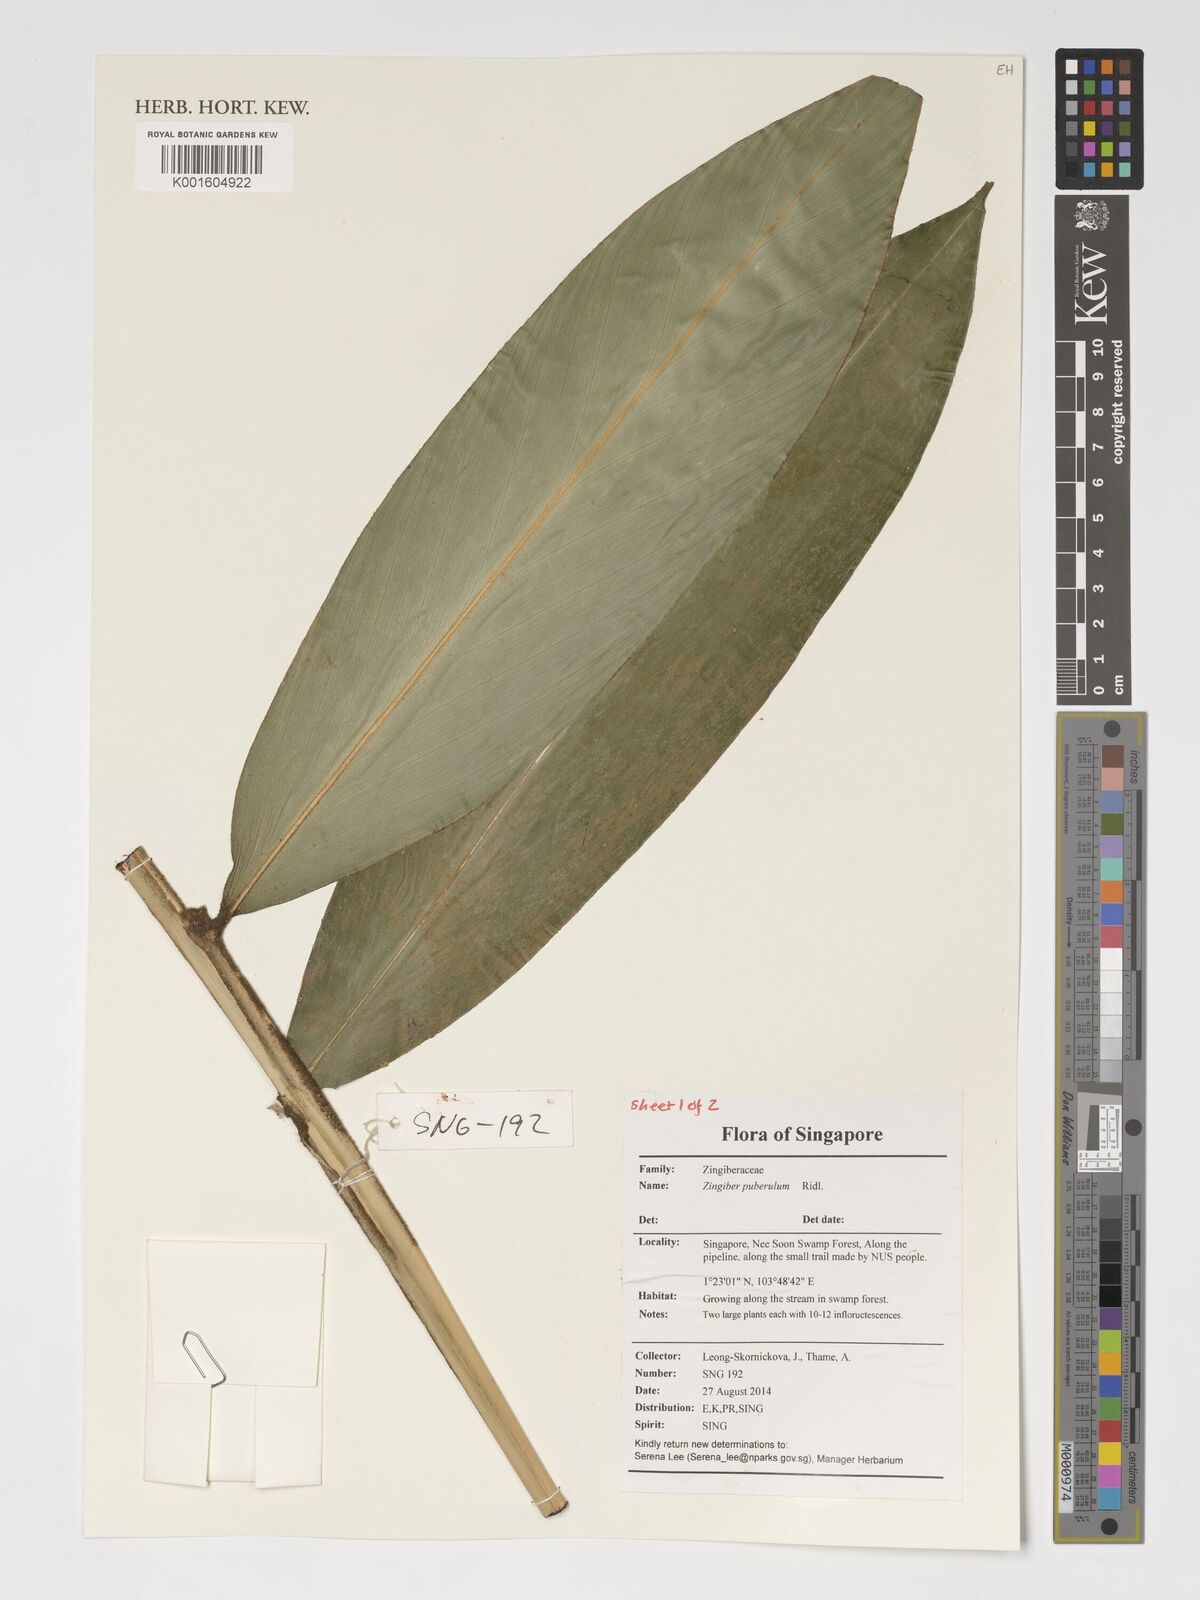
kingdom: Plantae
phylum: Tracheophyta
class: Liliopsida
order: Zingiberales
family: Zingiberaceae
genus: Zingiber
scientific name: Zingiber puberulum
